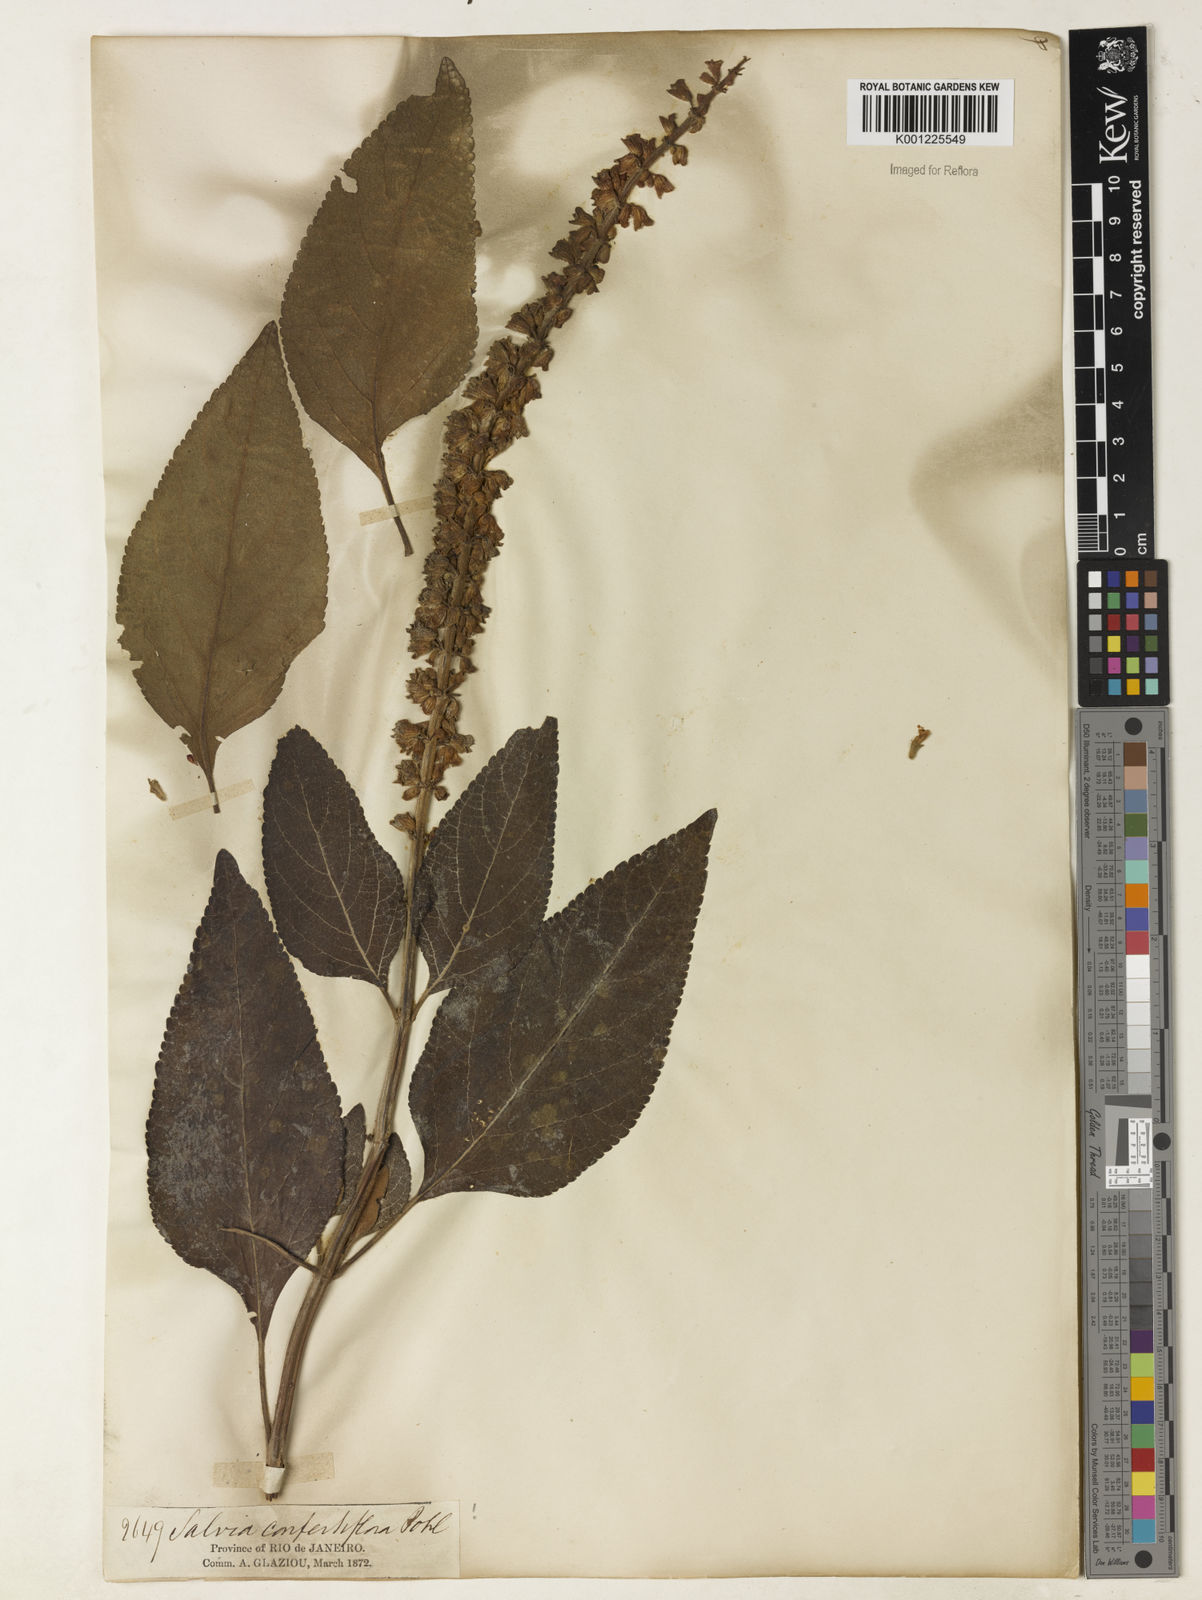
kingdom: Plantae
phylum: Tracheophyta
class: Magnoliopsida
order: Lamiales
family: Lamiaceae
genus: Salvia
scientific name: Salvia confertiflora
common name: Sabra-spike sage
